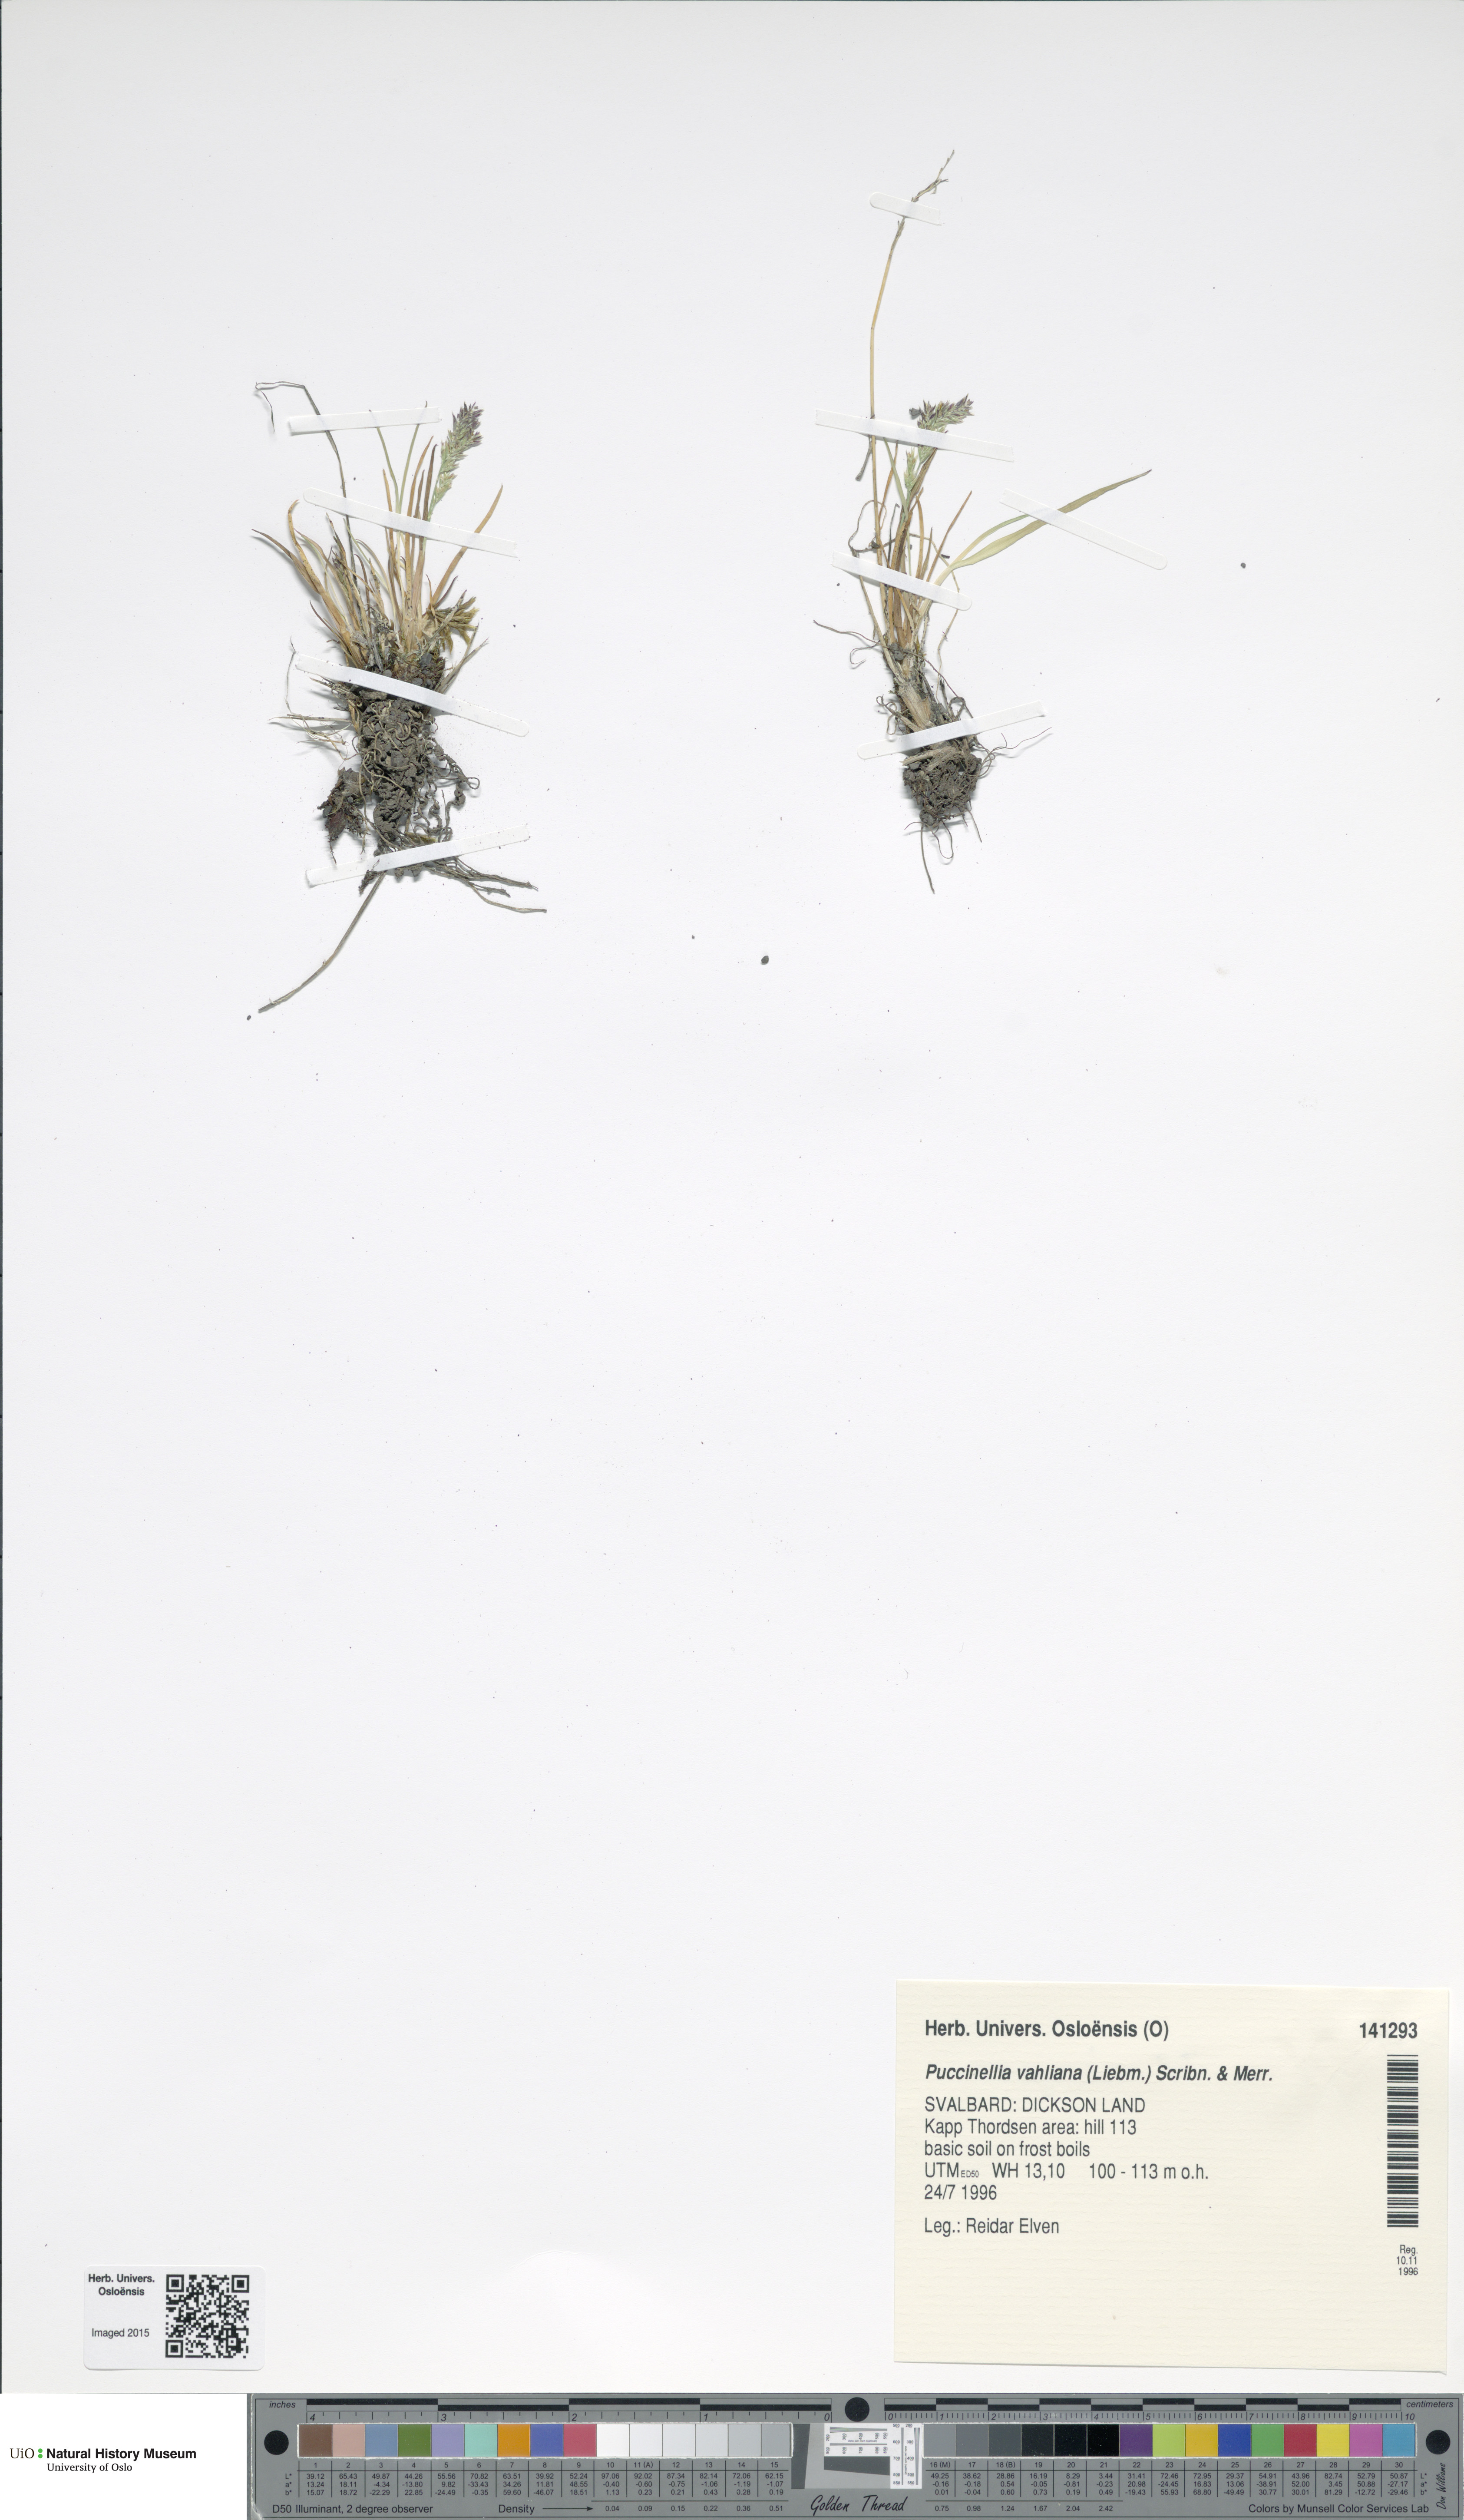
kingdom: Plantae
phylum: Tracheophyta
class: Liliopsida
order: Poales
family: Poaceae
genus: Puccinellia
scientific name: Puccinellia vahliana
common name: Vahl's alkaligrass
